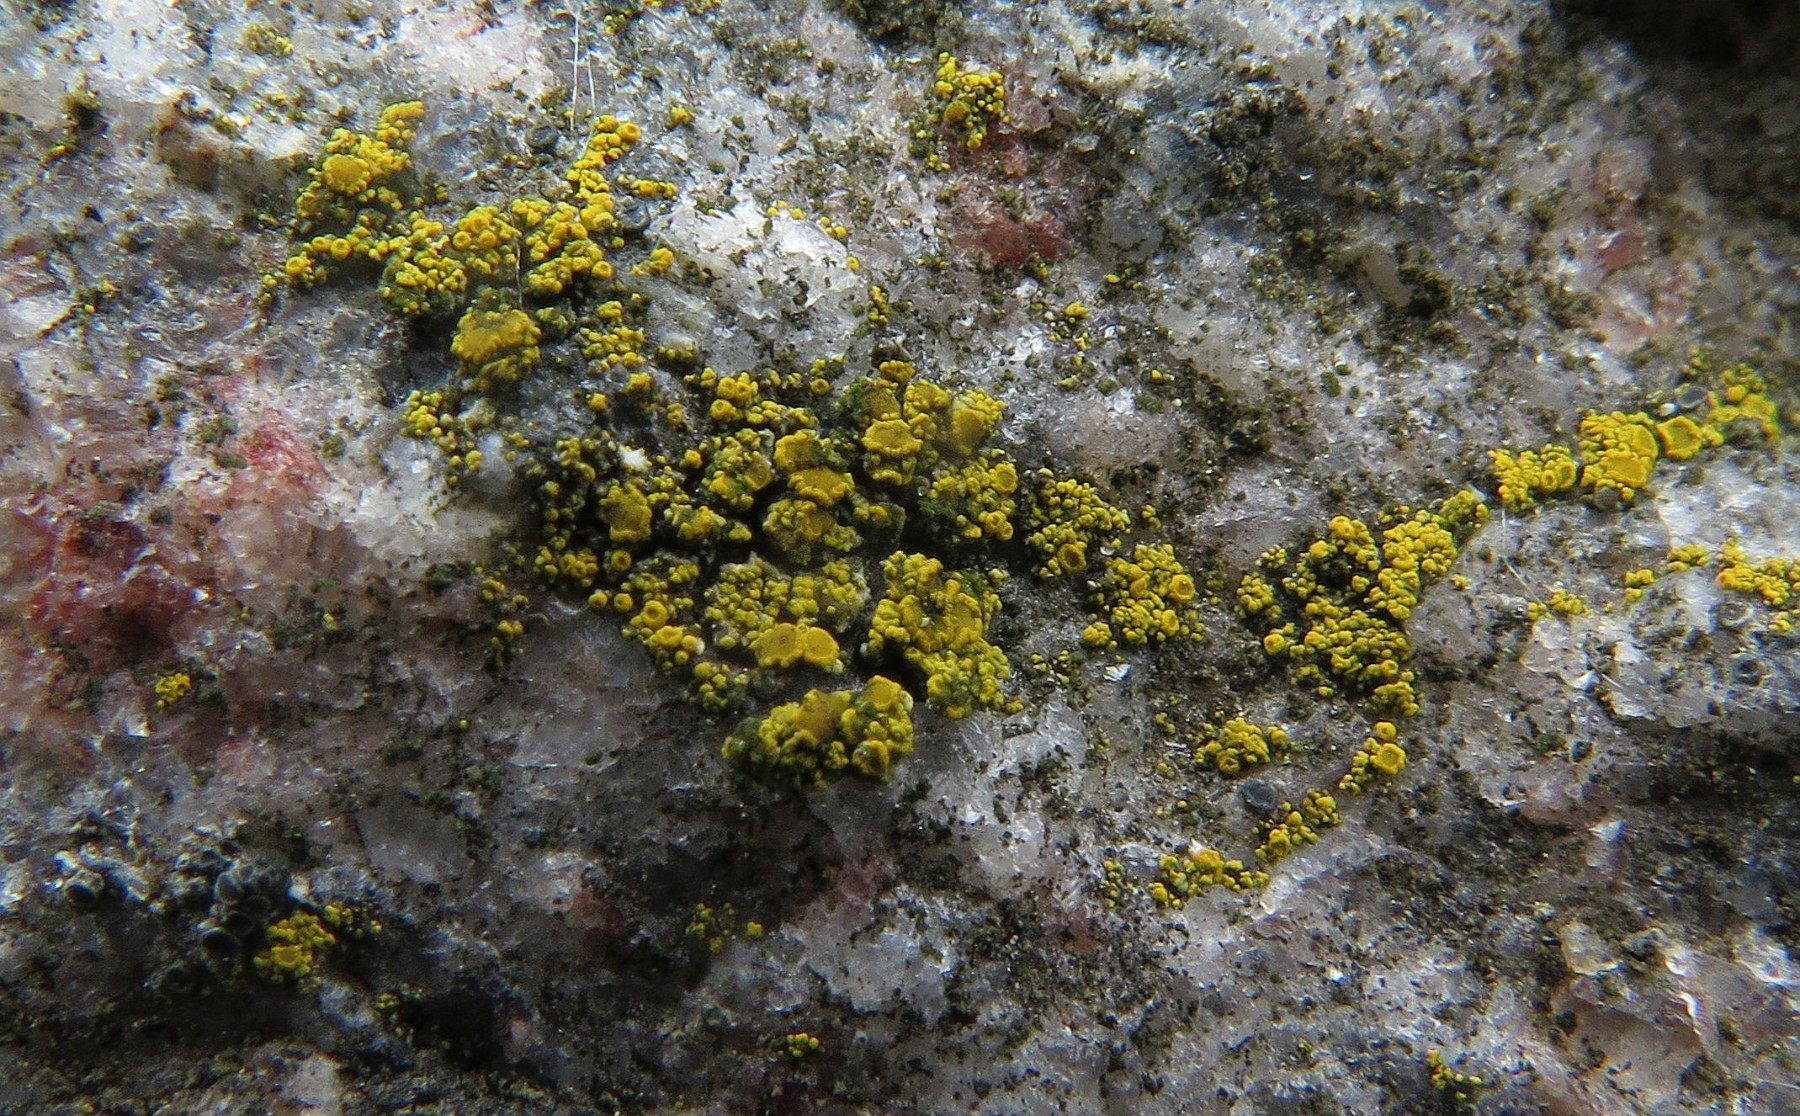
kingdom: Fungi
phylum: Ascomycota
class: Candelariomycetes
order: Candelariales
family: Candelariaceae
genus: Candelariella
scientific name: Candelariella vitellina
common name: almindelig æggeblommelav
